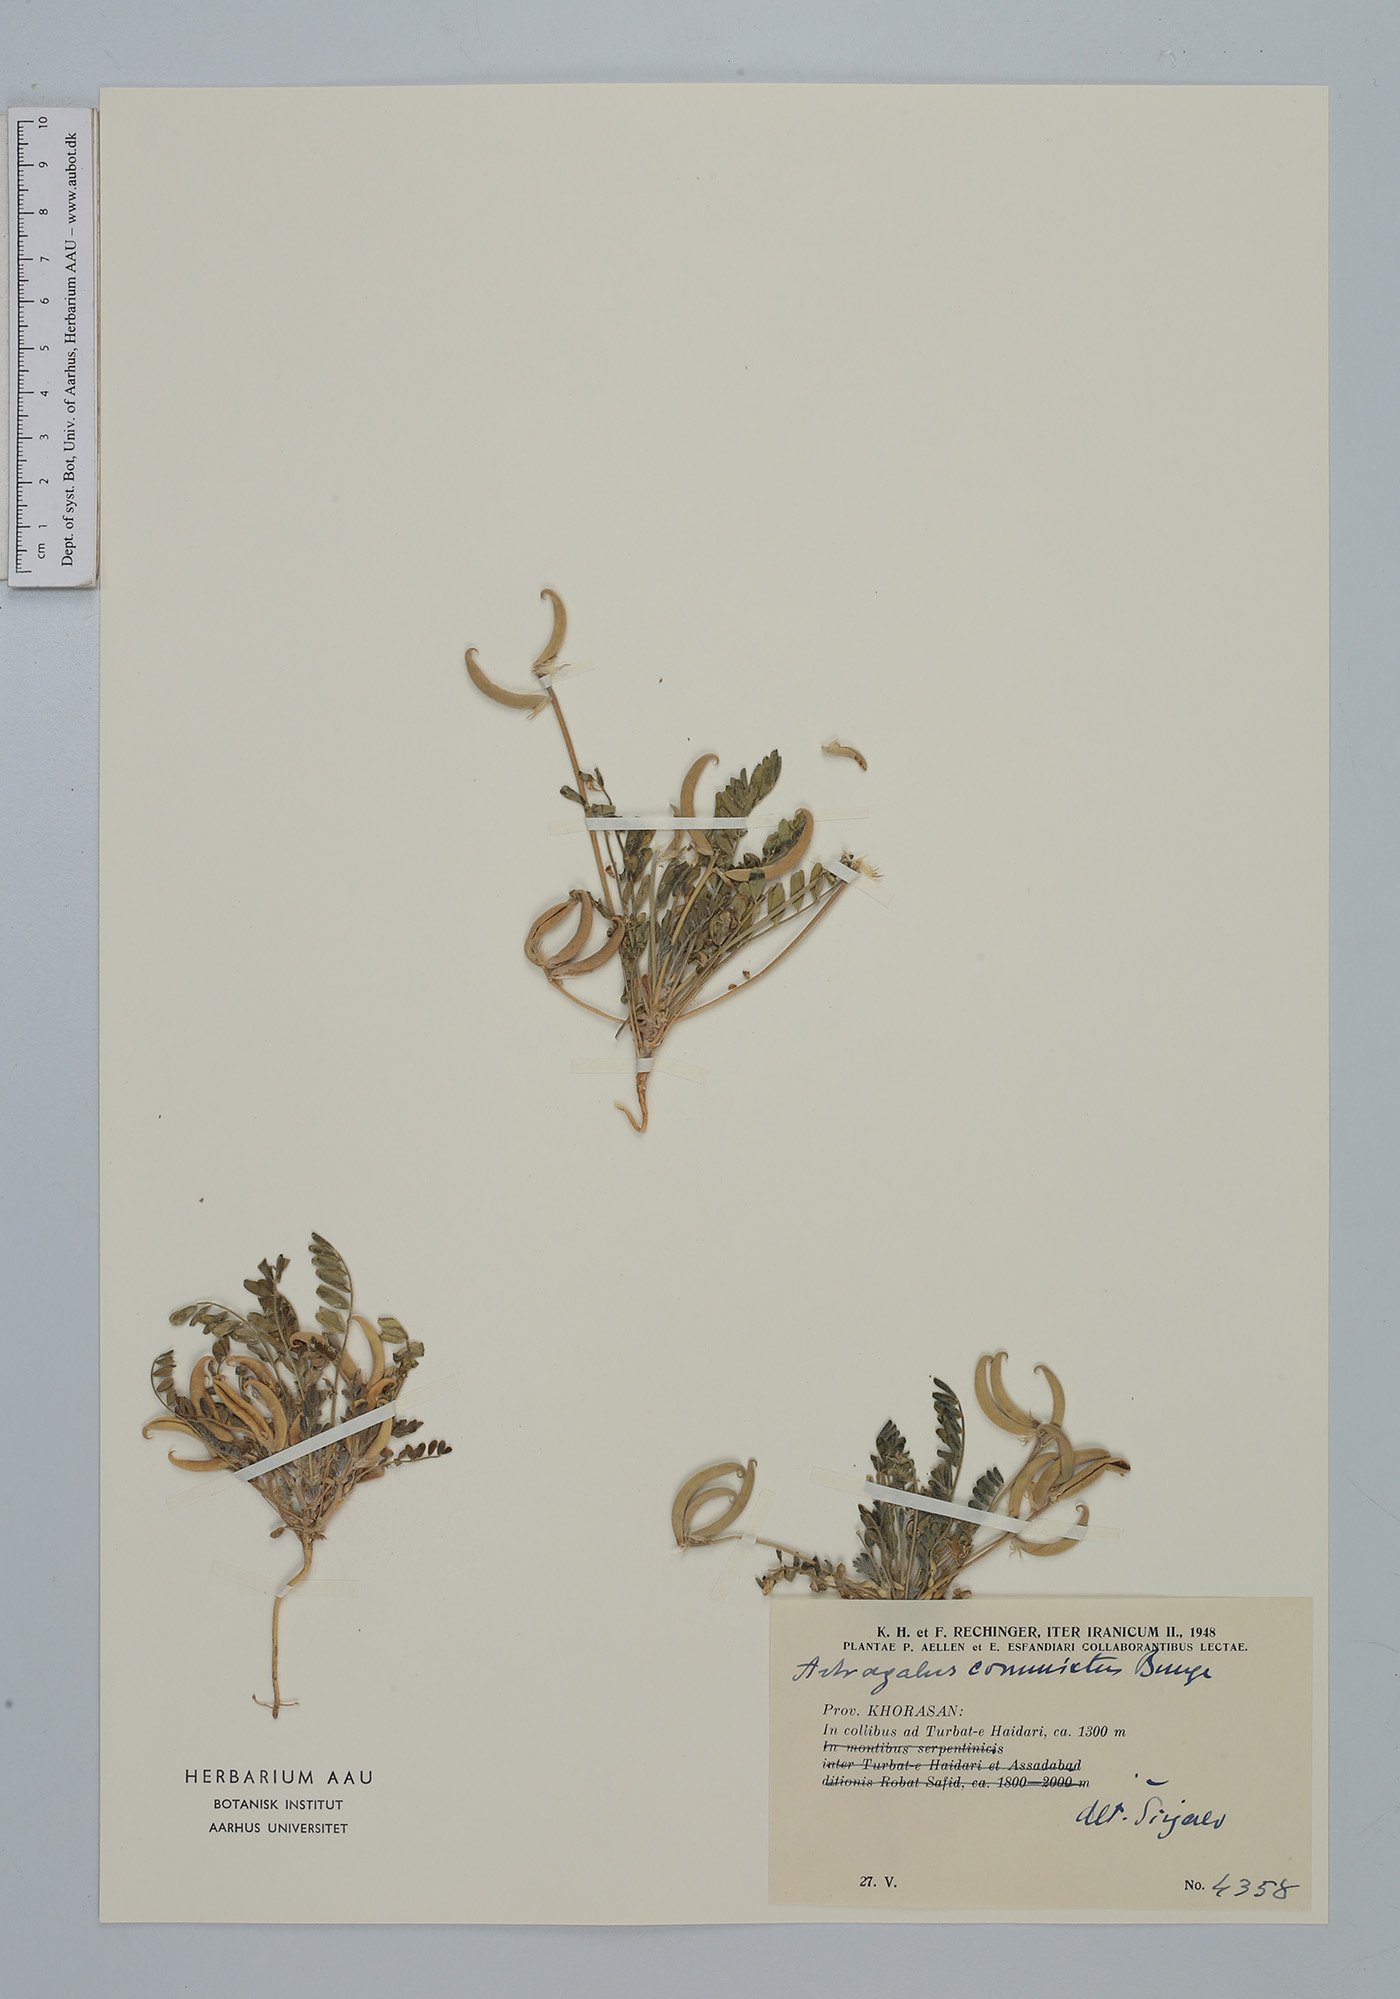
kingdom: Plantae
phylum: Tracheophyta
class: Magnoliopsida
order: Fabales
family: Fabaceae
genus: Astragalus
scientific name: Astragalus commixtus
